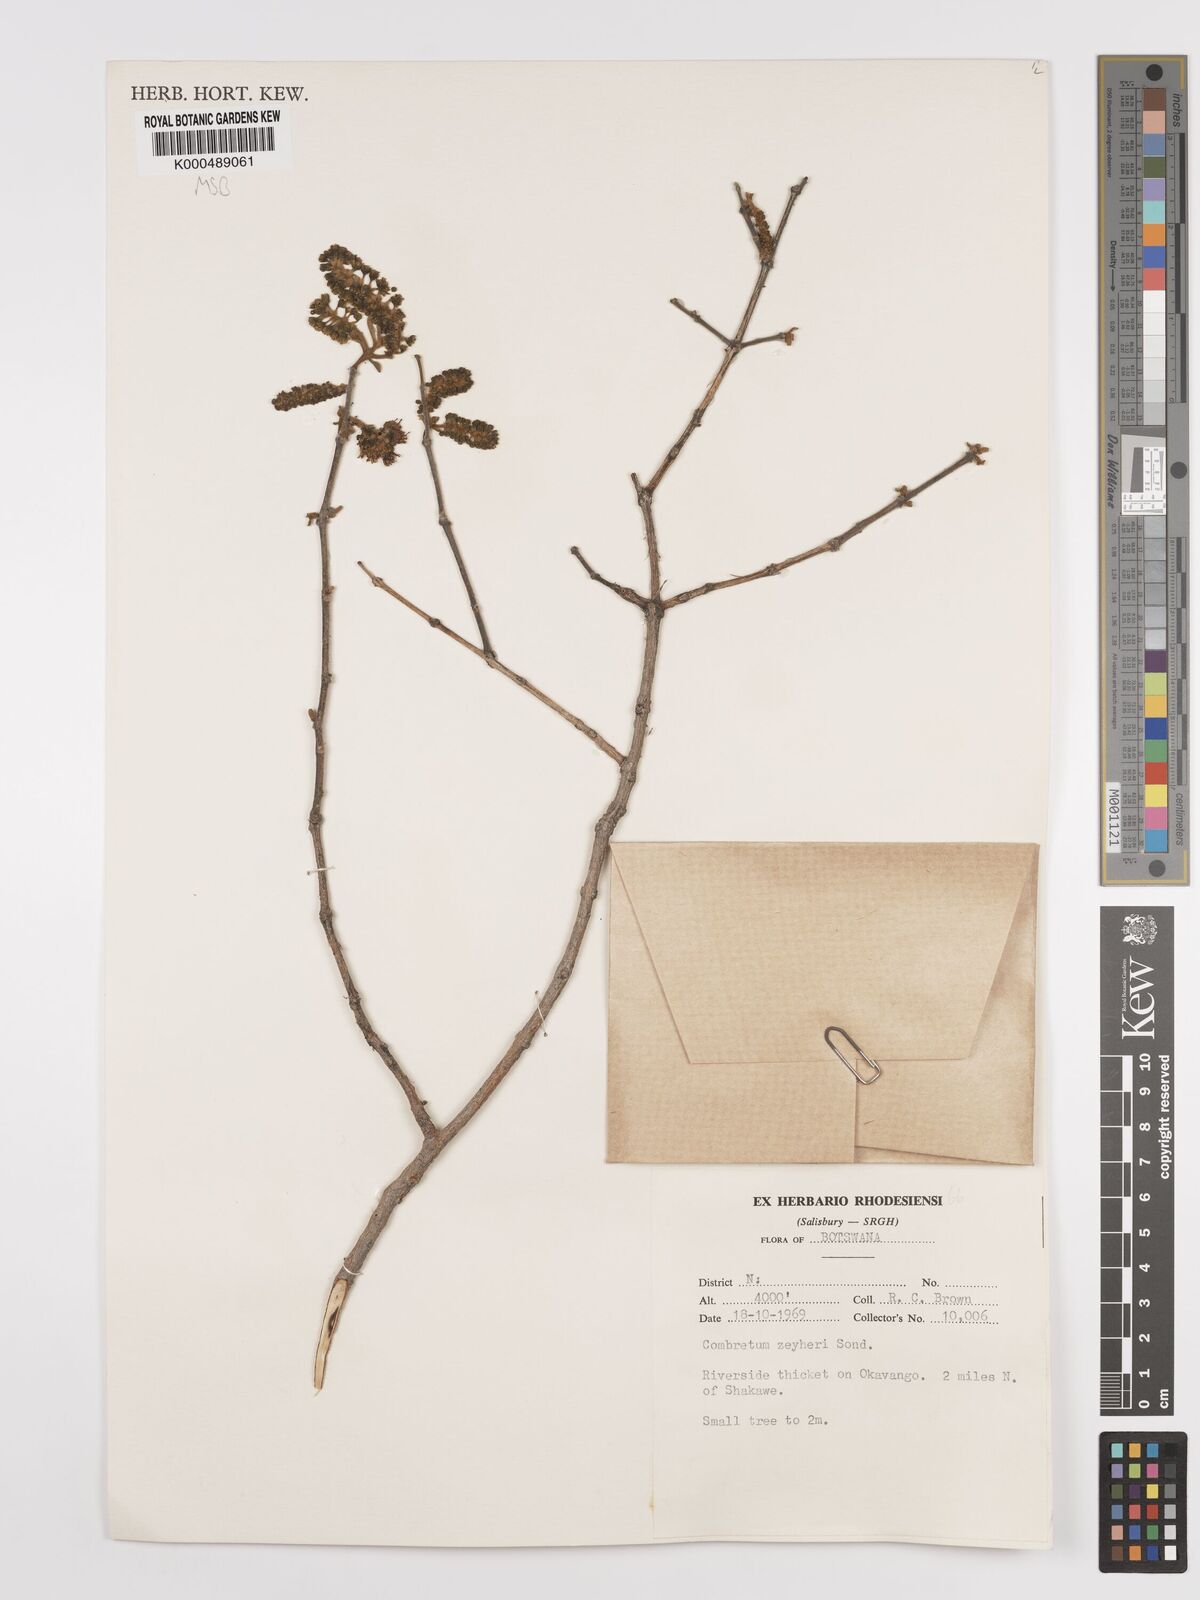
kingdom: Plantae
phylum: Tracheophyta
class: Magnoliopsida
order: Myrtales
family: Combretaceae
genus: Combretum
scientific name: Combretum zeyheri
